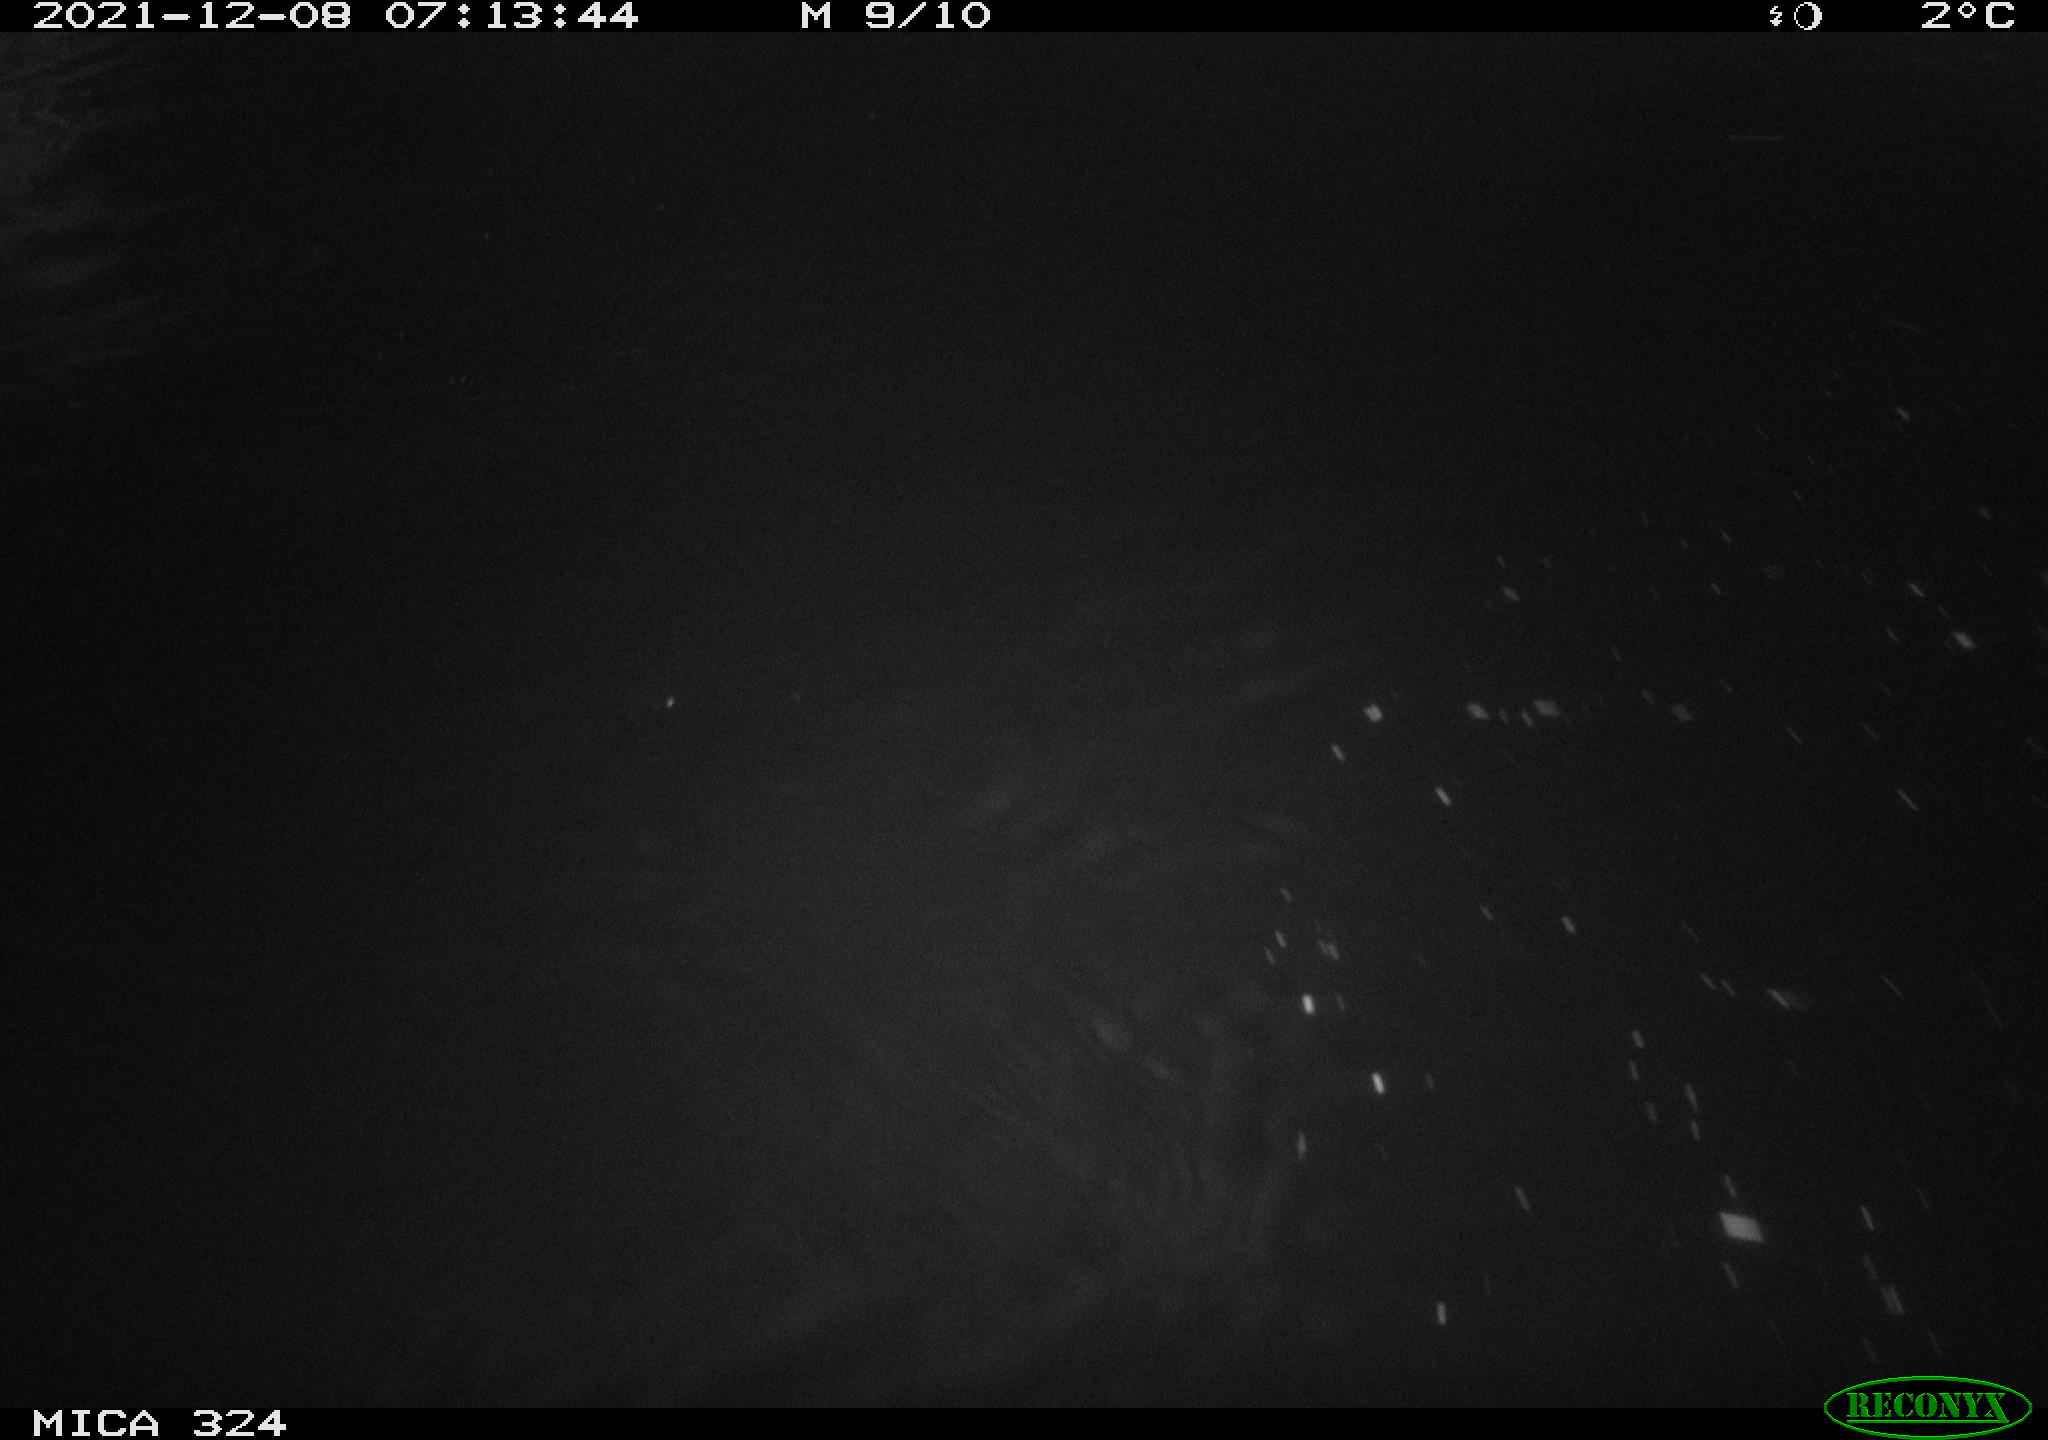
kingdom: Animalia
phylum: Chordata
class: Mammalia
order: Rodentia
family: Cricetidae
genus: Ondatra
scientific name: Ondatra zibethicus
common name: Muskrat
